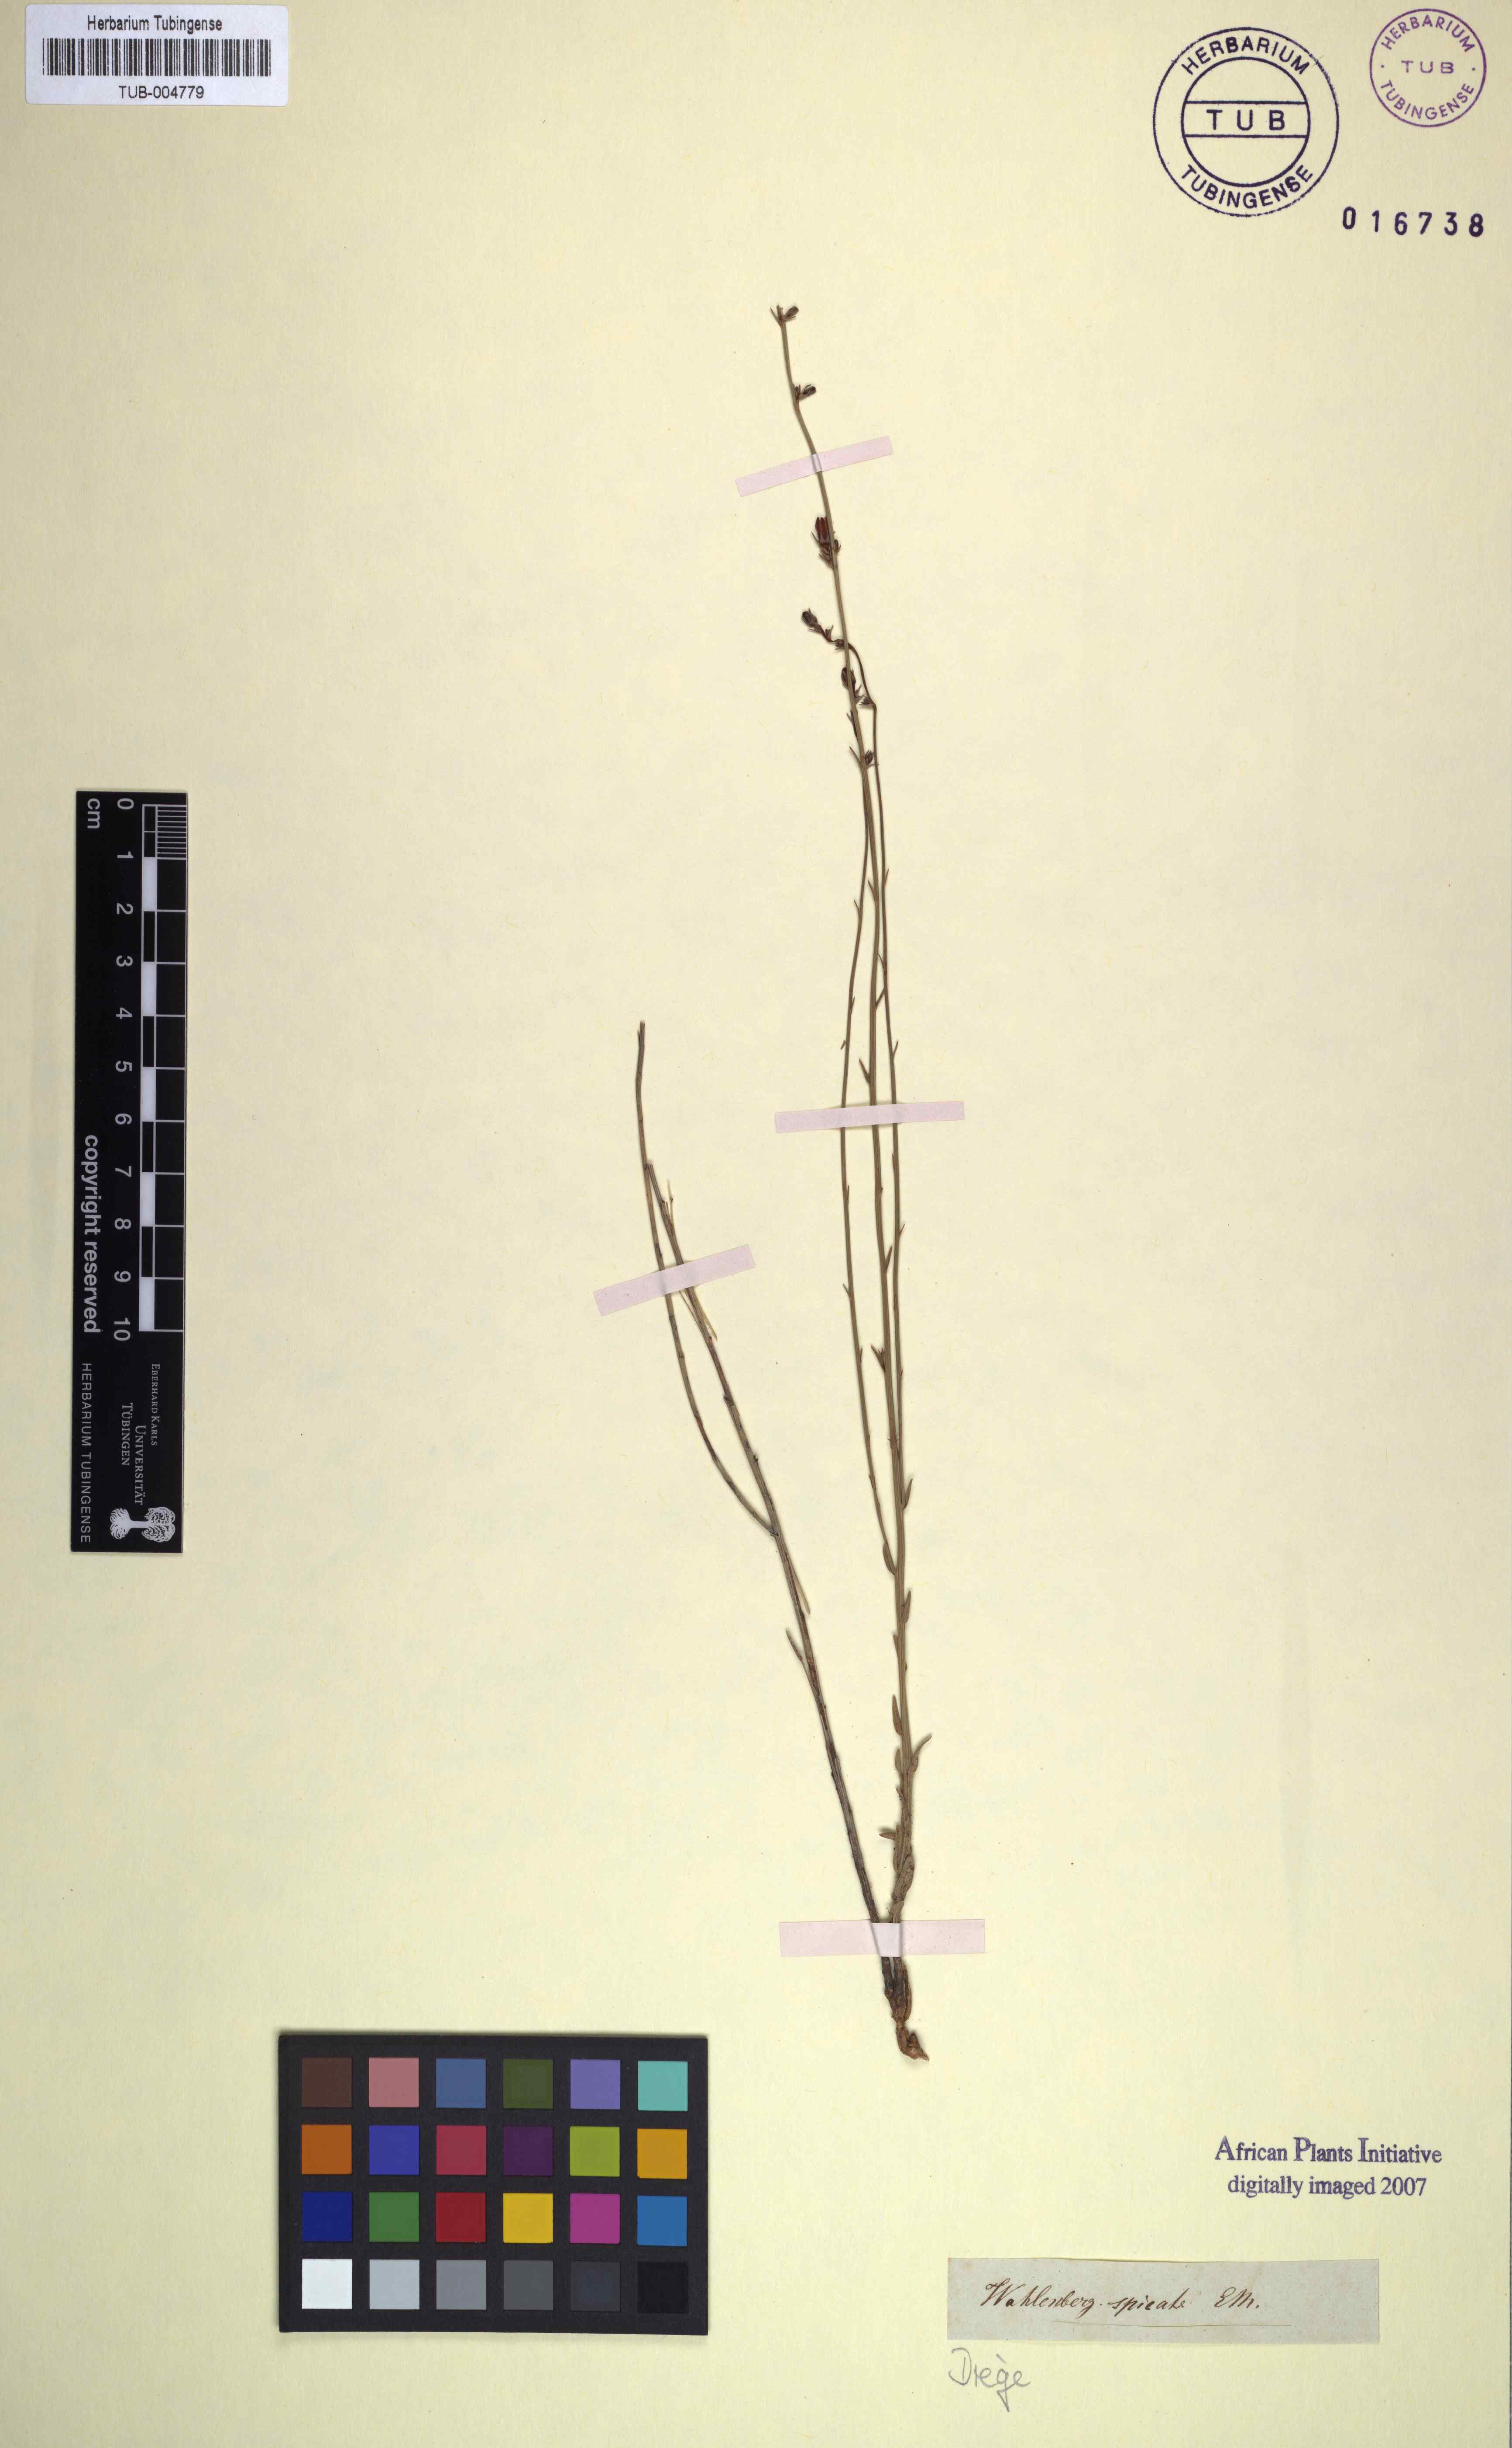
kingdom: Plantae
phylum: Tracheophyta
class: Magnoliopsida
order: Asterales
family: Campanulaceae
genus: Wahlenbergia
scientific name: Wahlenbergia juncea
